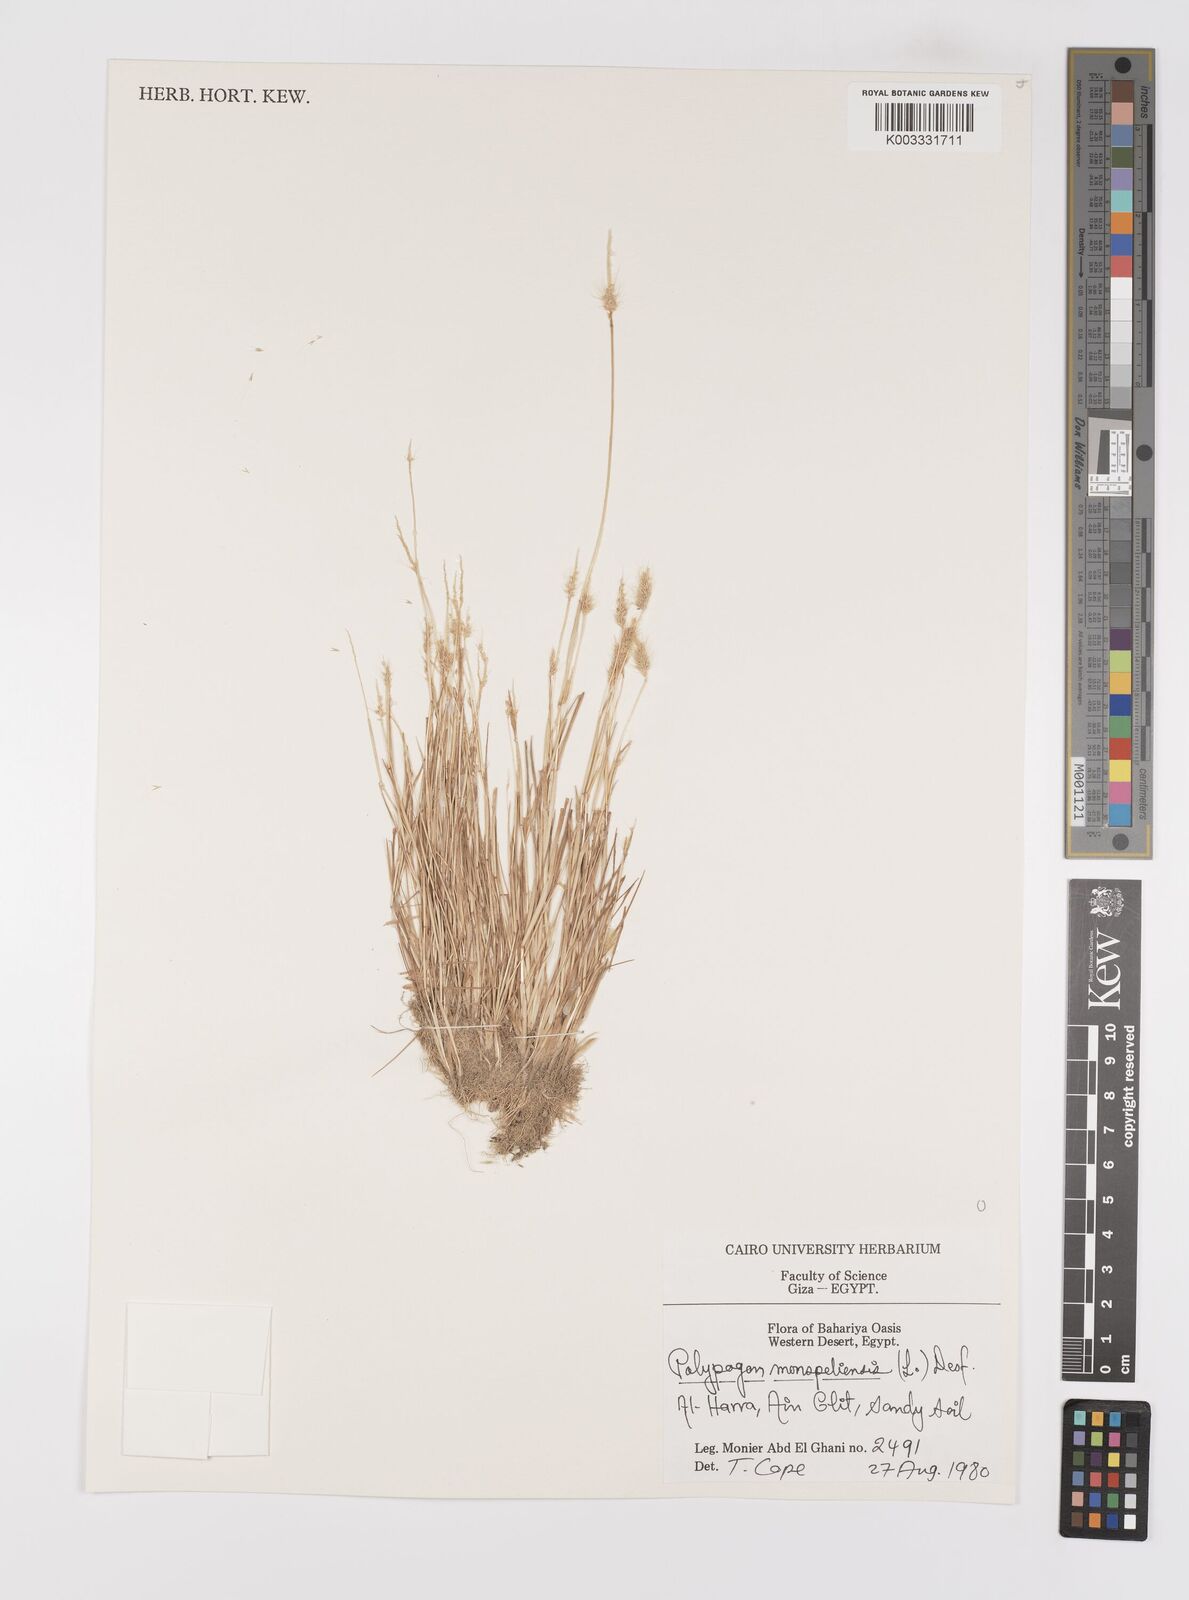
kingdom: Plantae
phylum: Tracheophyta
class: Liliopsida
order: Poales
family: Poaceae
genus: Polypogon
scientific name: Polypogon monspeliensis
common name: Annual rabbitsfoot grass
